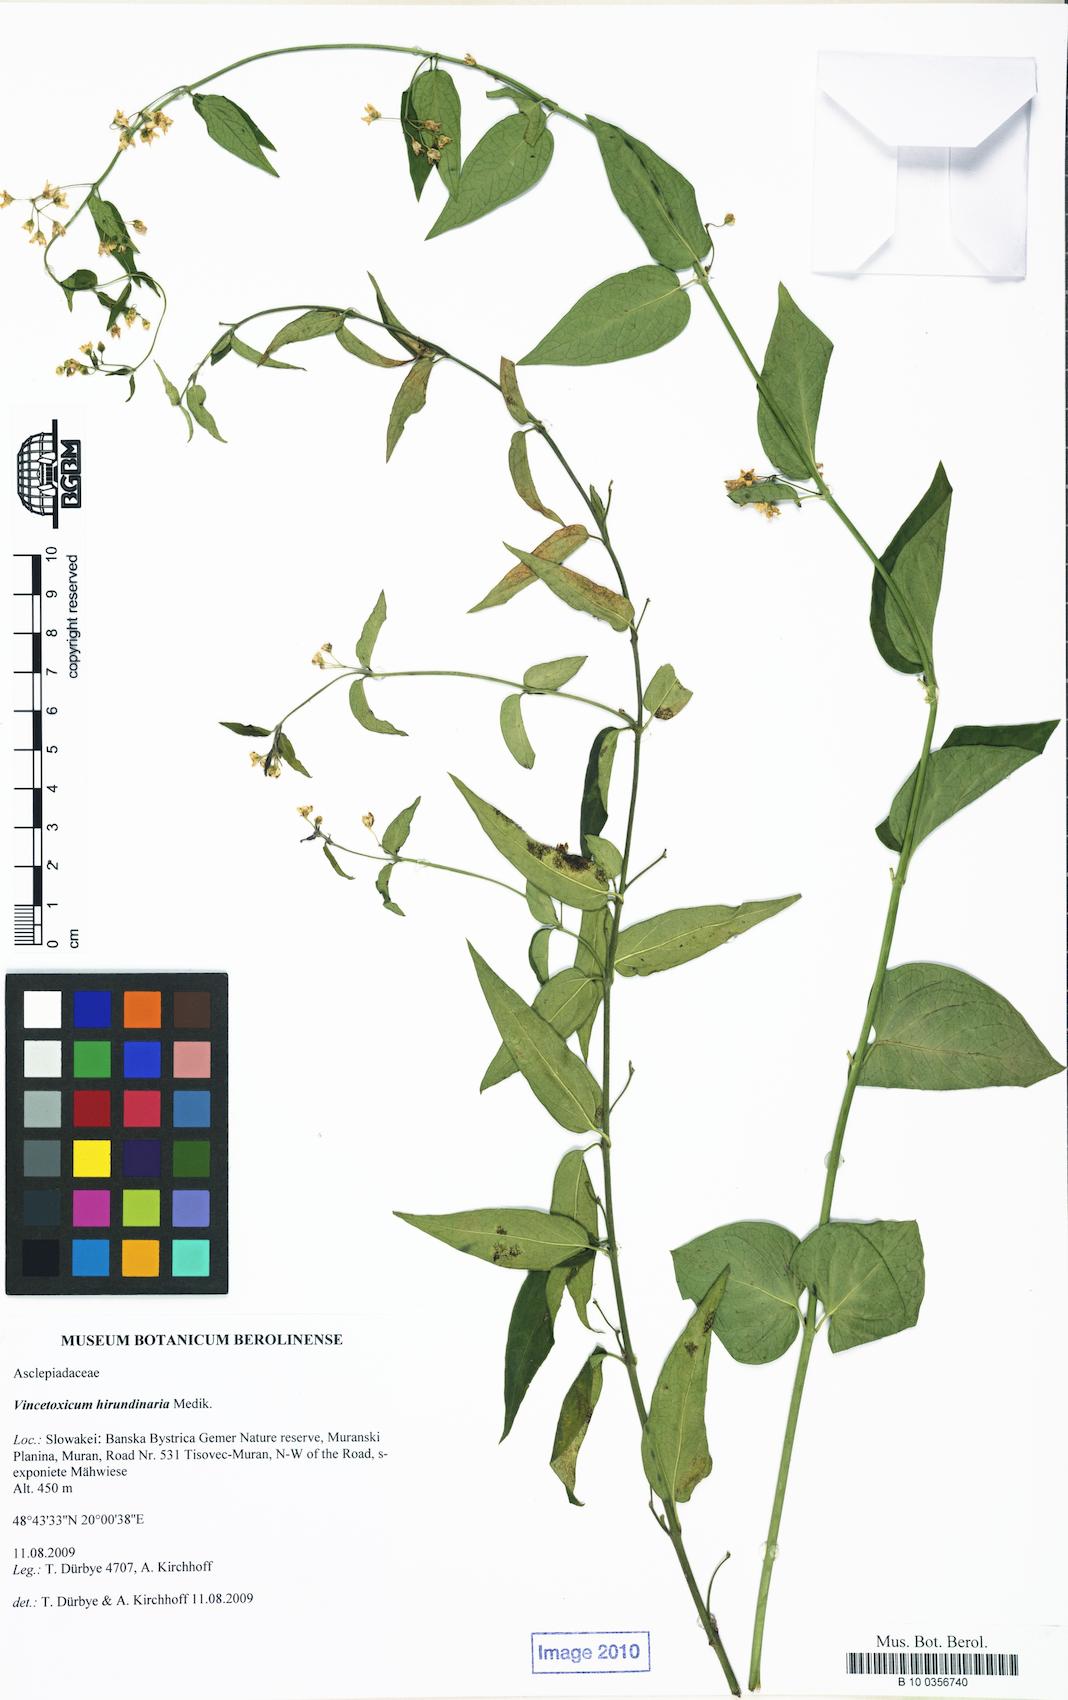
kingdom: Plantae
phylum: Tracheophyta
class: Magnoliopsida
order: Gentianales
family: Apocynaceae
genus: Vincetoxicum
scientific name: Vincetoxicum hirundinaria
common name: White swallowwort
